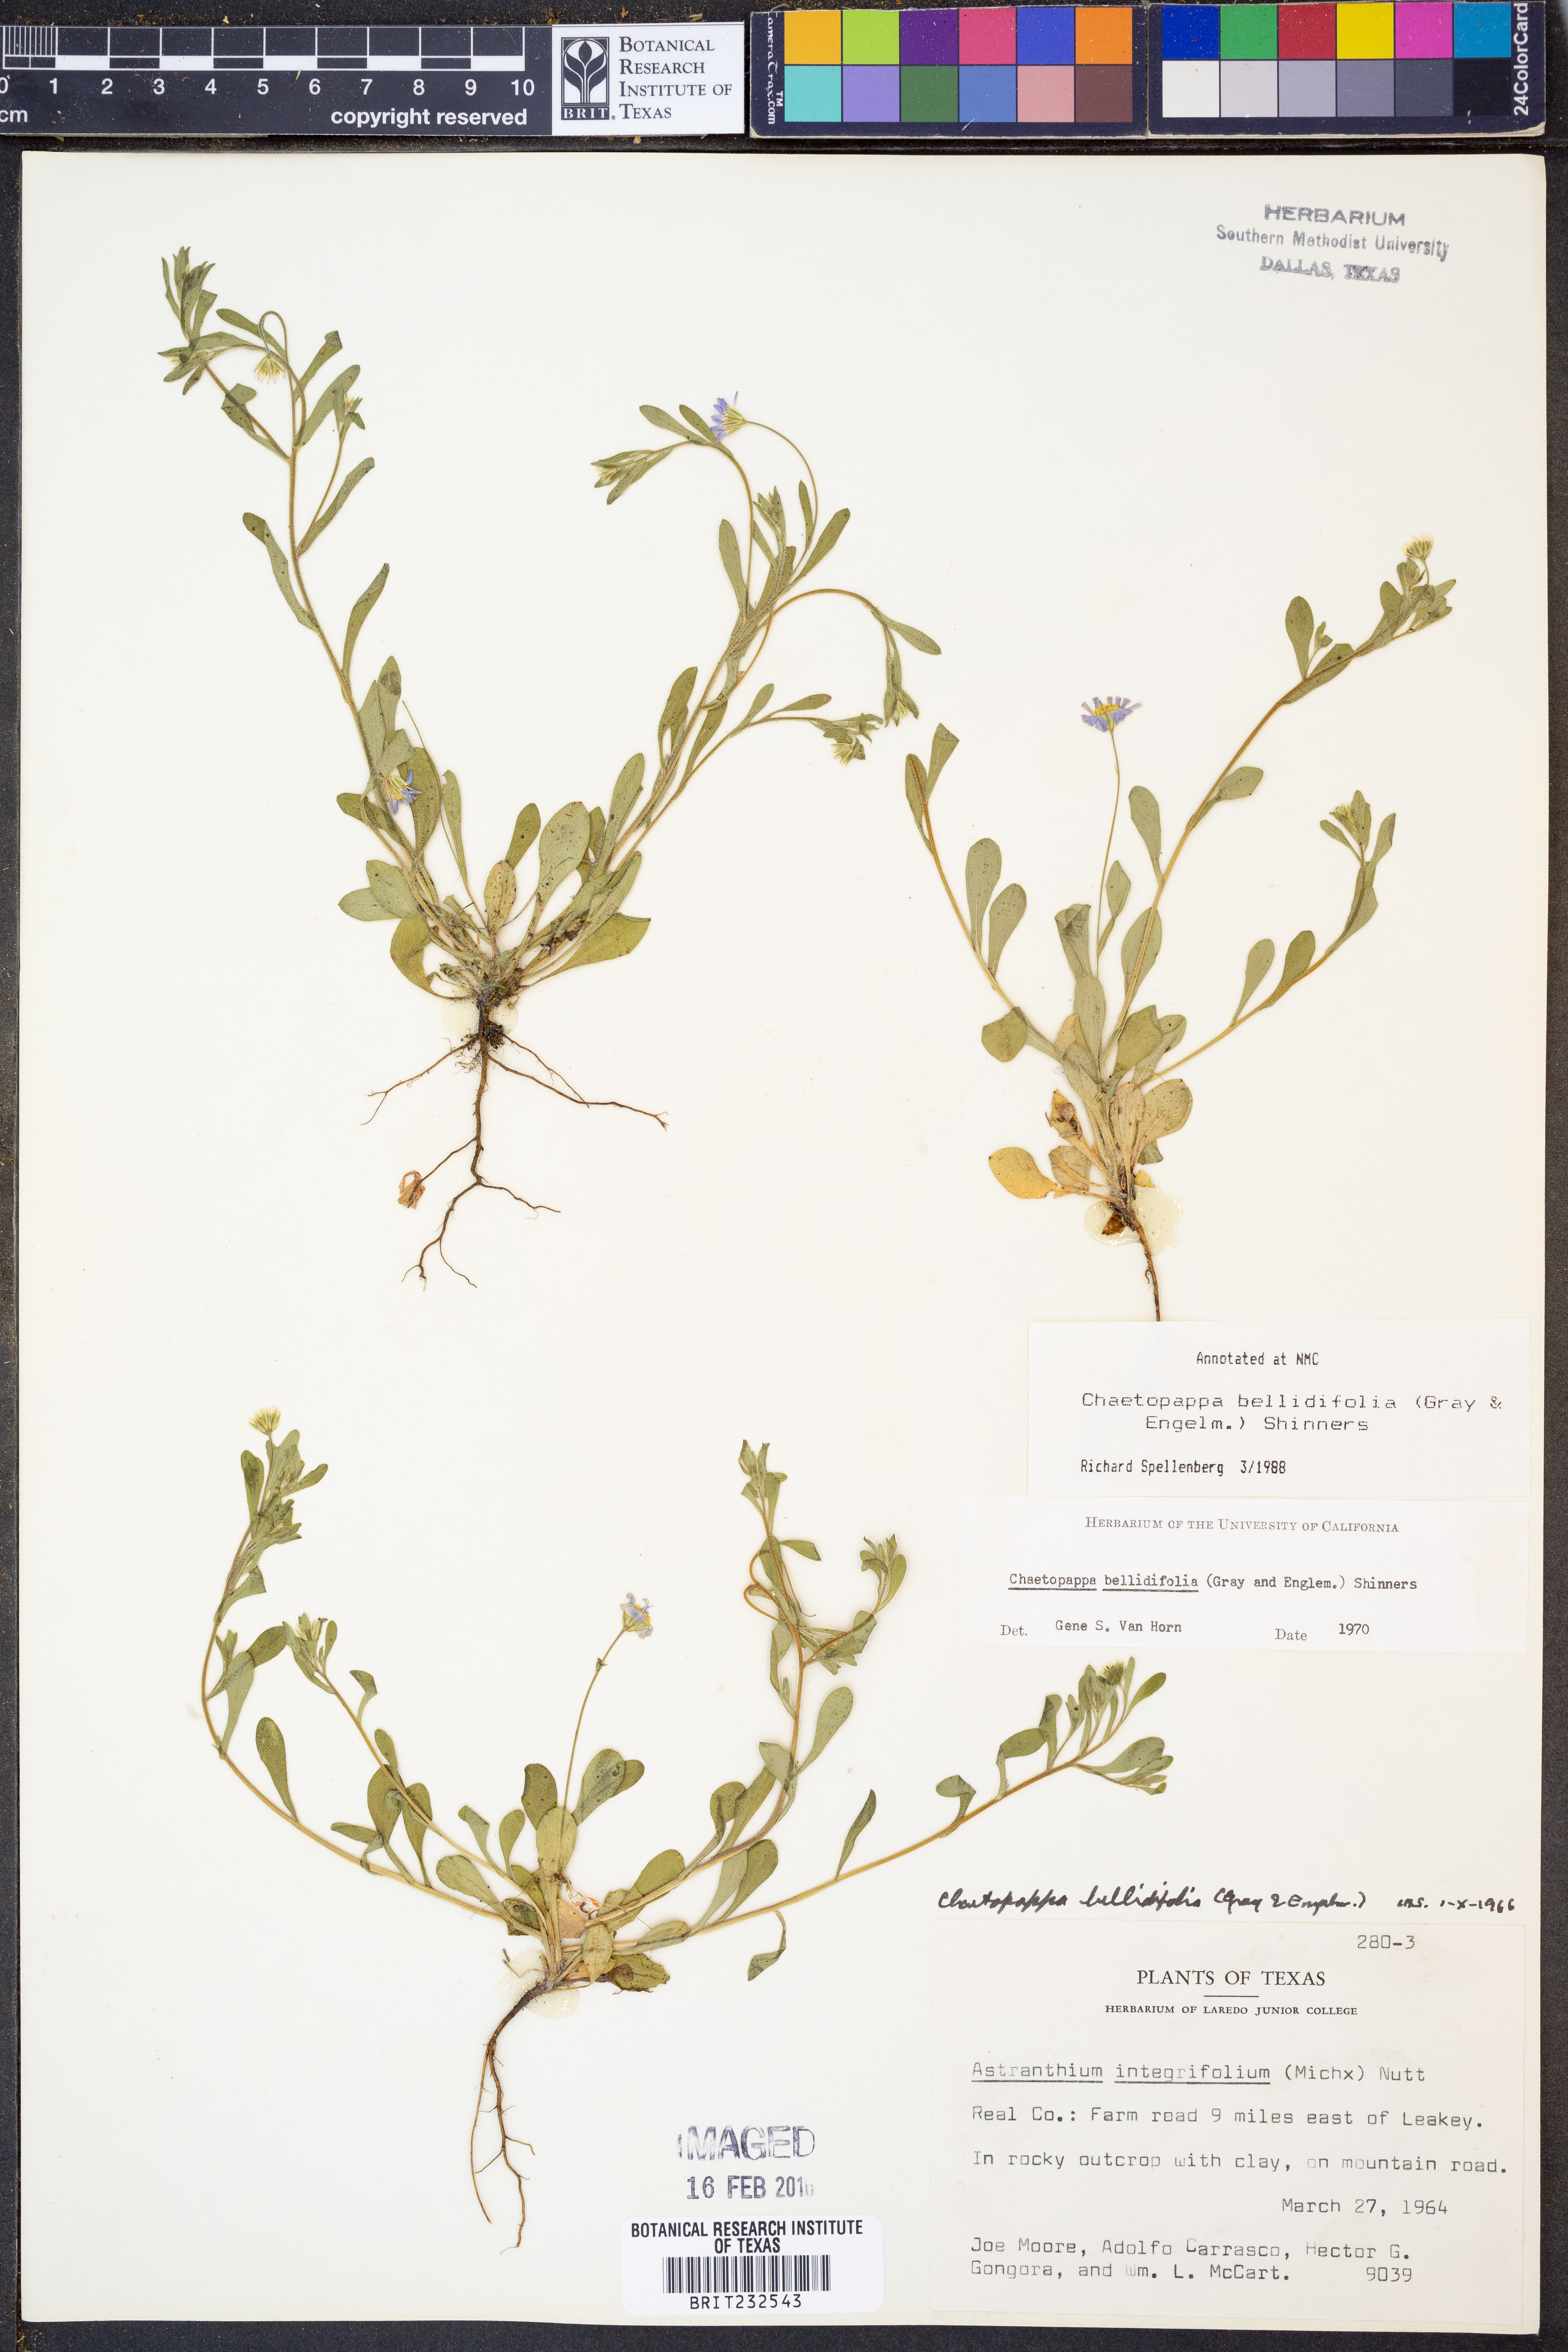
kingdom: Plantae
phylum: Tracheophyta
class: Magnoliopsida
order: Asterales
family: Asteraceae
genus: Chaetopappa
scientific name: Chaetopappa bellidifolia
